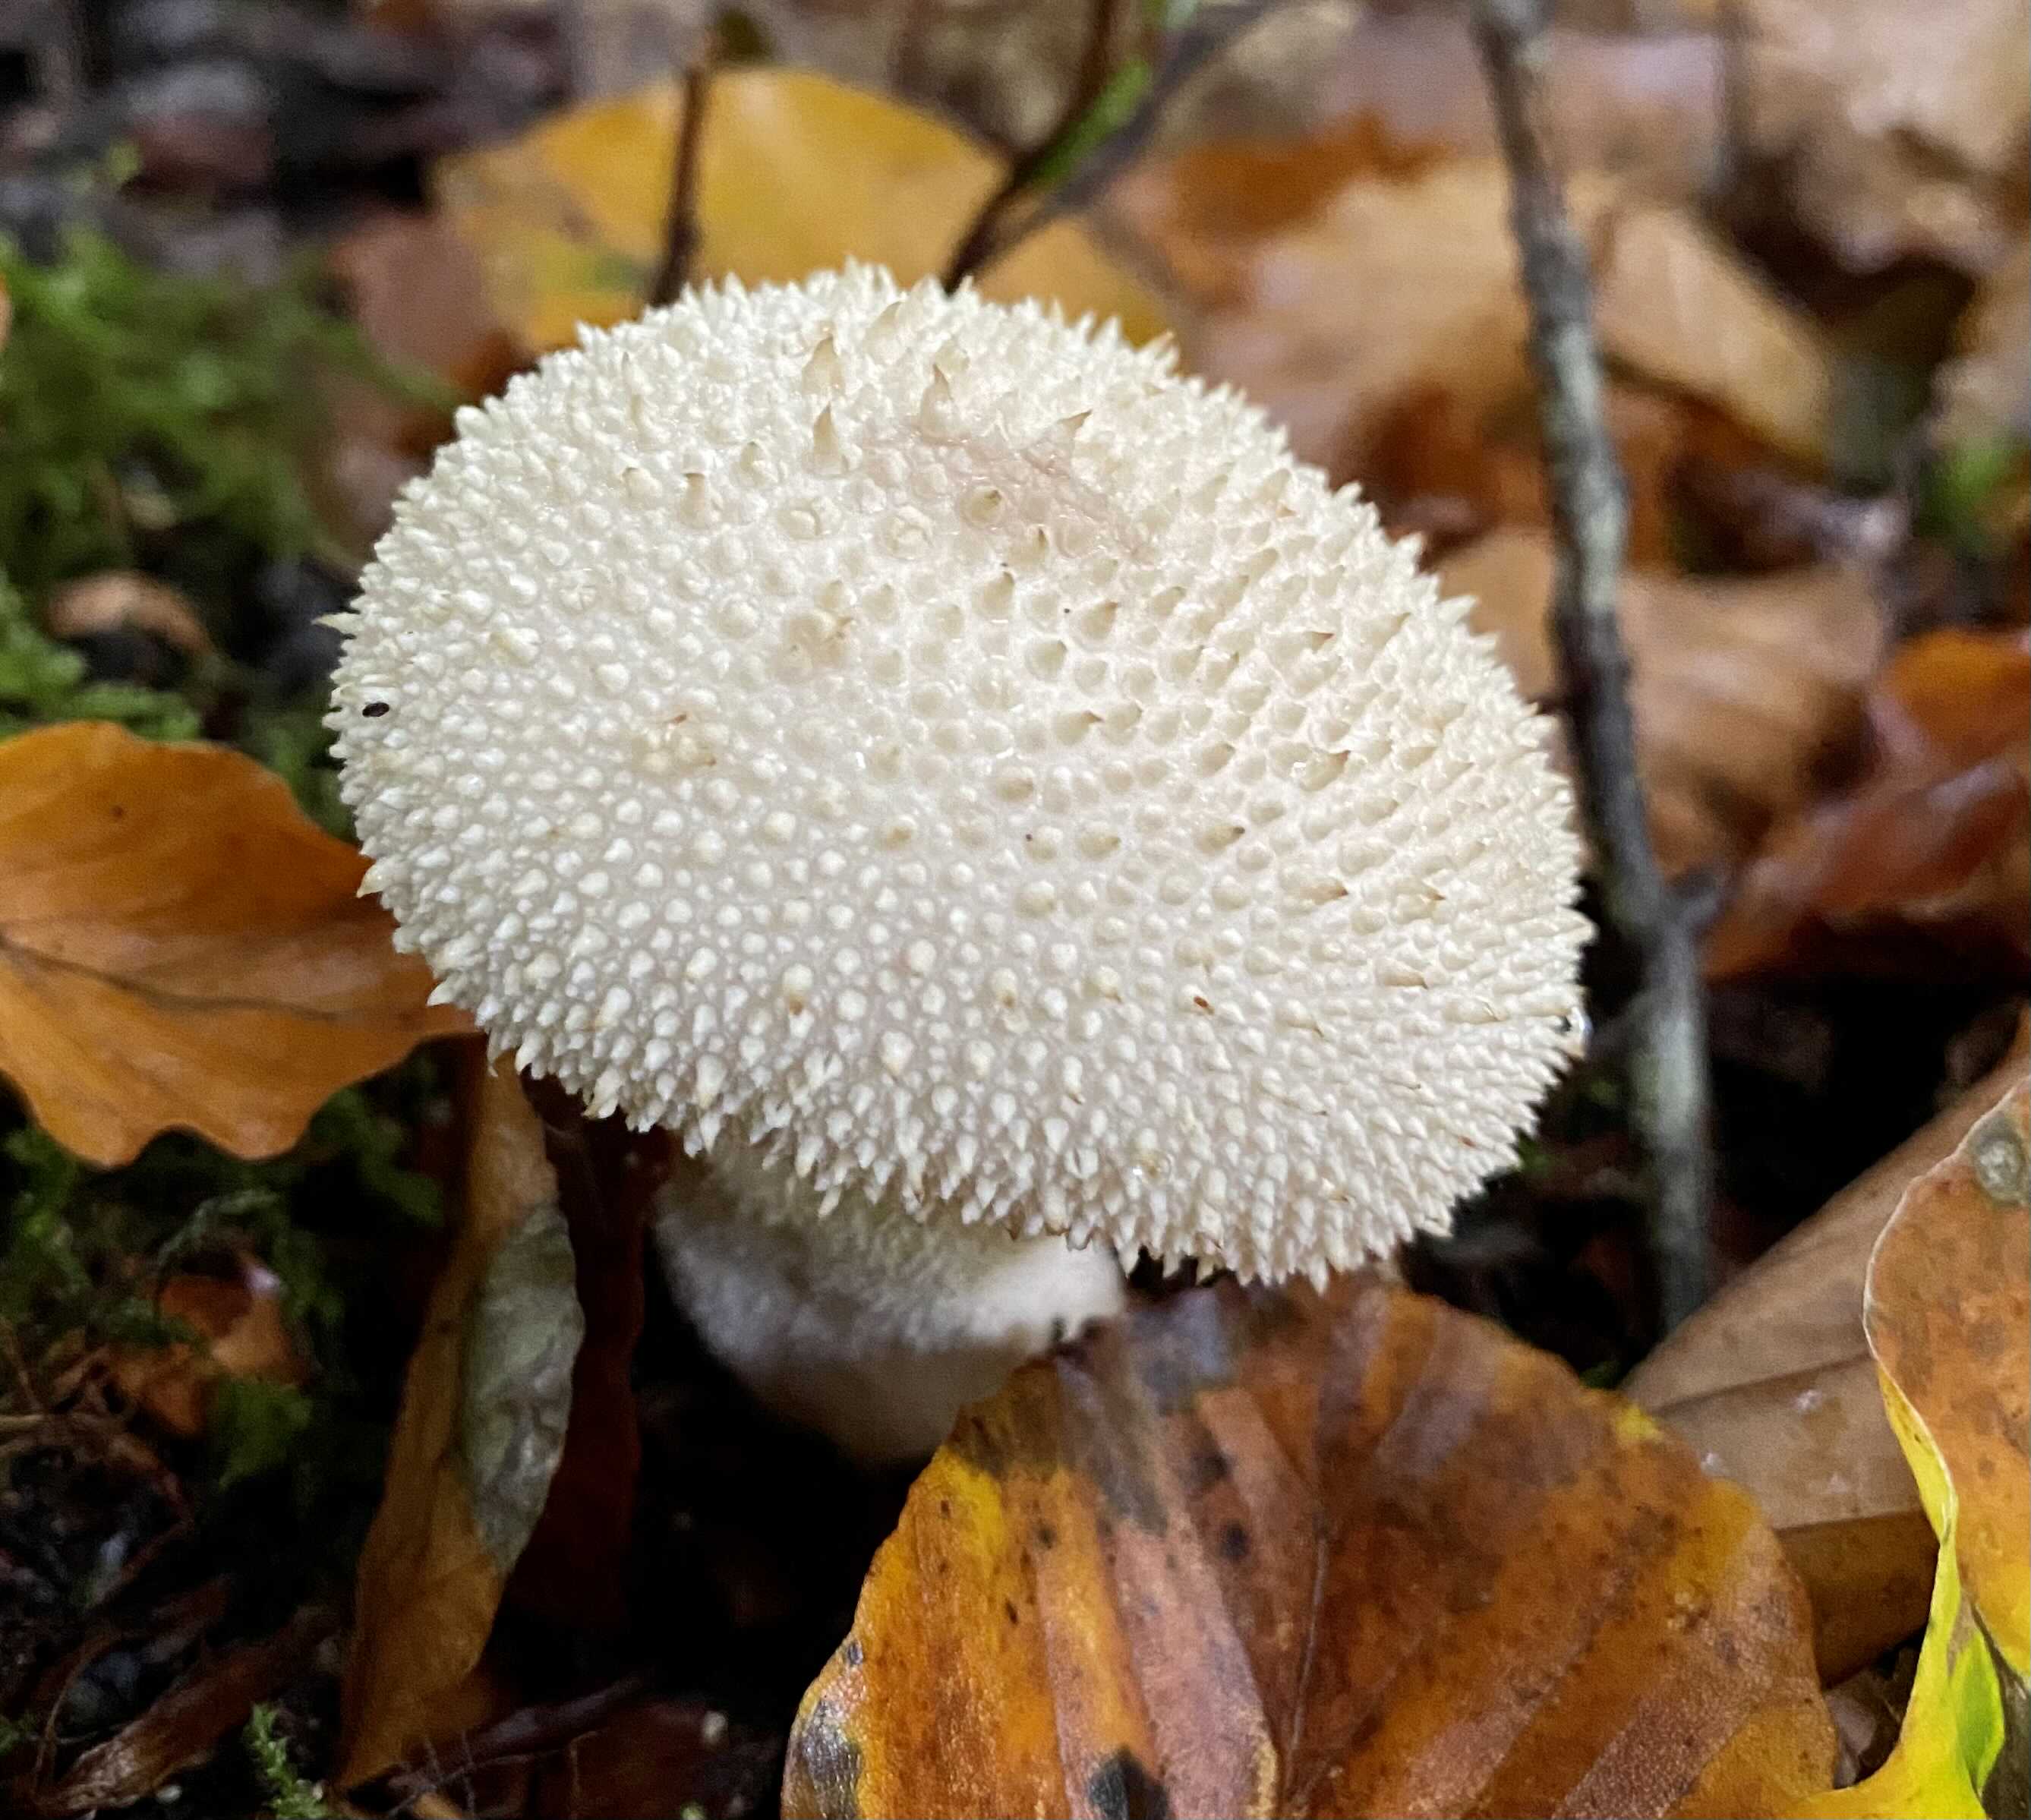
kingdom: Fungi
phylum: Basidiomycota
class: Agaricomycetes
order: Agaricales
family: Lycoperdaceae
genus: Lycoperdon
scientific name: Lycoperdon perlatum
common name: krystal-støvbold
